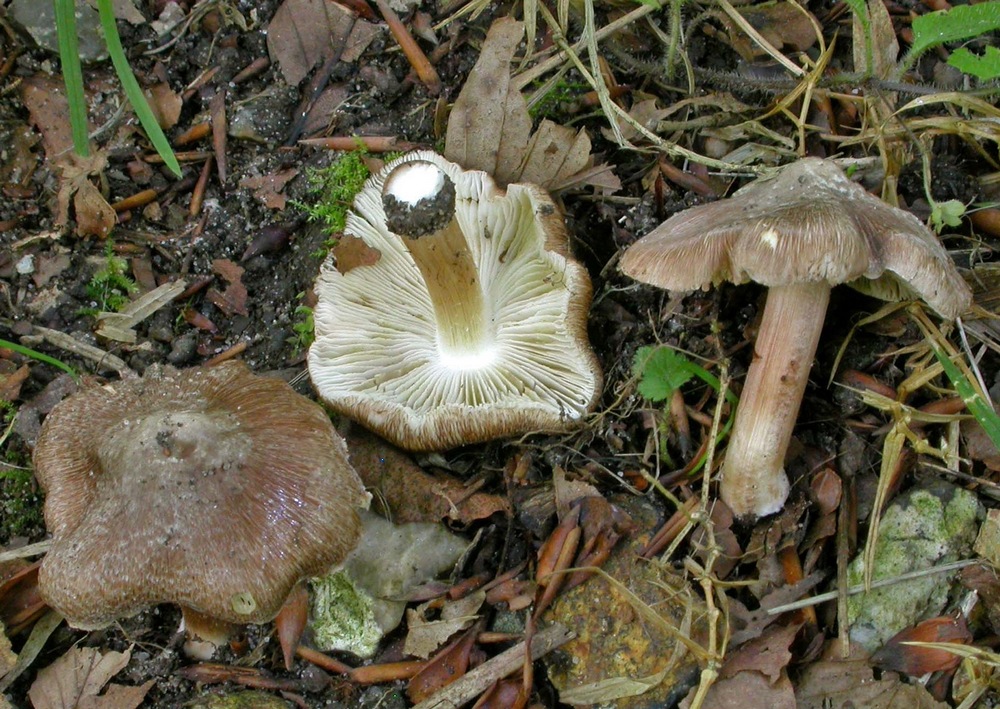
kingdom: Fungi
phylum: Basidiomycota
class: Agaricomycetes
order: Agaricales
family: Inocybaceae
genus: Inosperma
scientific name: Inosperma
